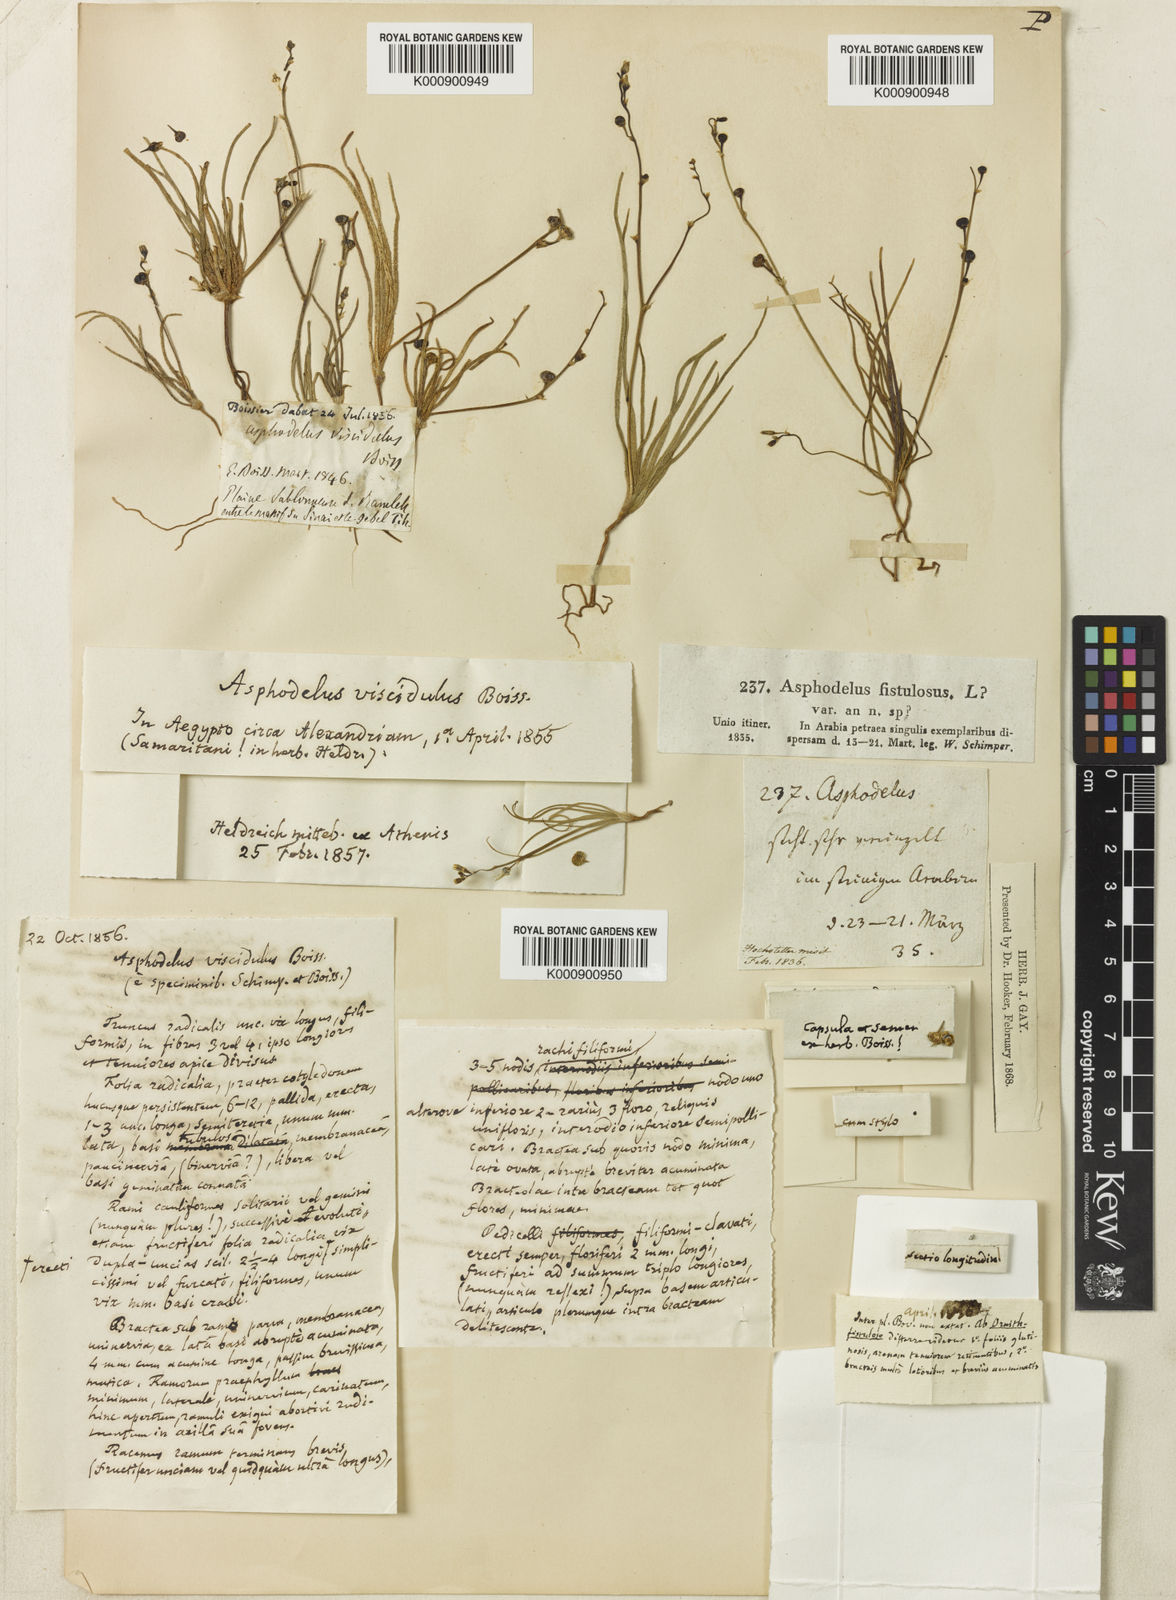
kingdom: Plantae
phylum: Tracheophyta
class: Liliopsida
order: Asparagales
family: Asphodelaceae
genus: Asphodelus
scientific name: Asphodelus viscidulus
